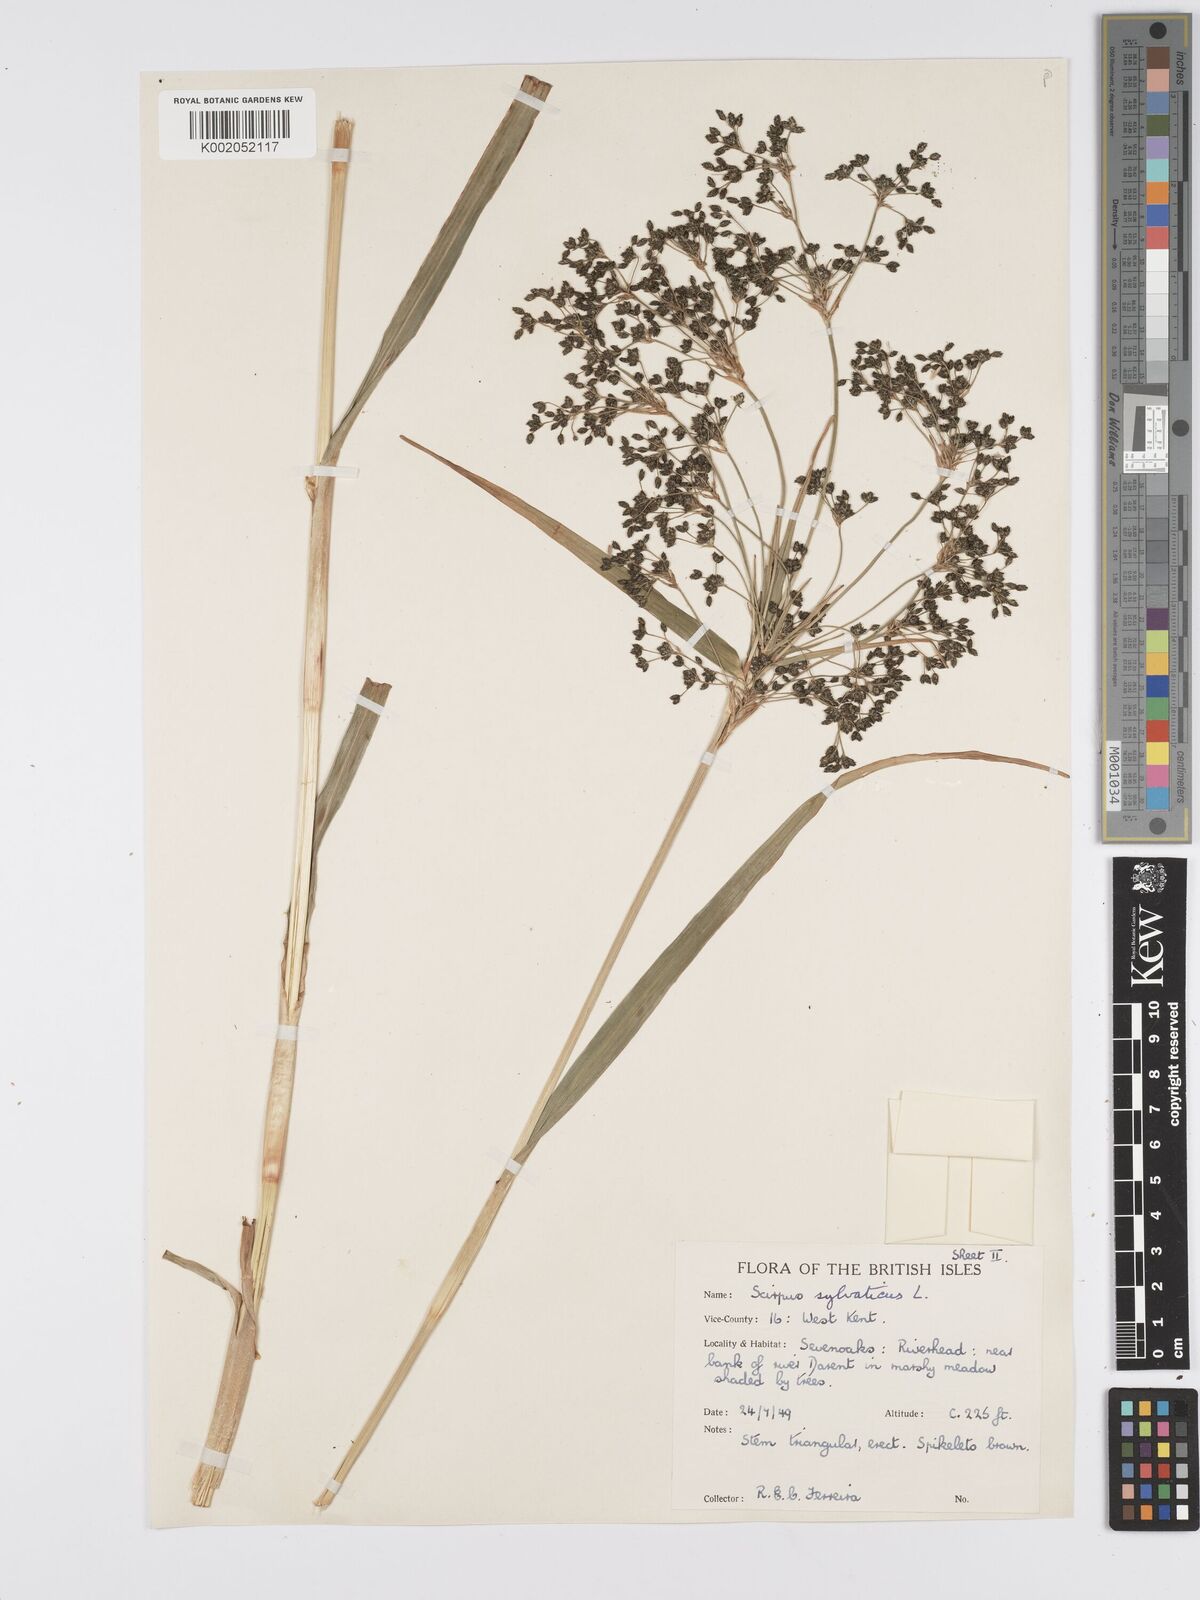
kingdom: Plantae
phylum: Tracheophyta
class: Liliopsida
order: Poales
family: Cyperaceae
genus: Scirpus
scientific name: Scirpus sylvaticus
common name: Wood club-rush
